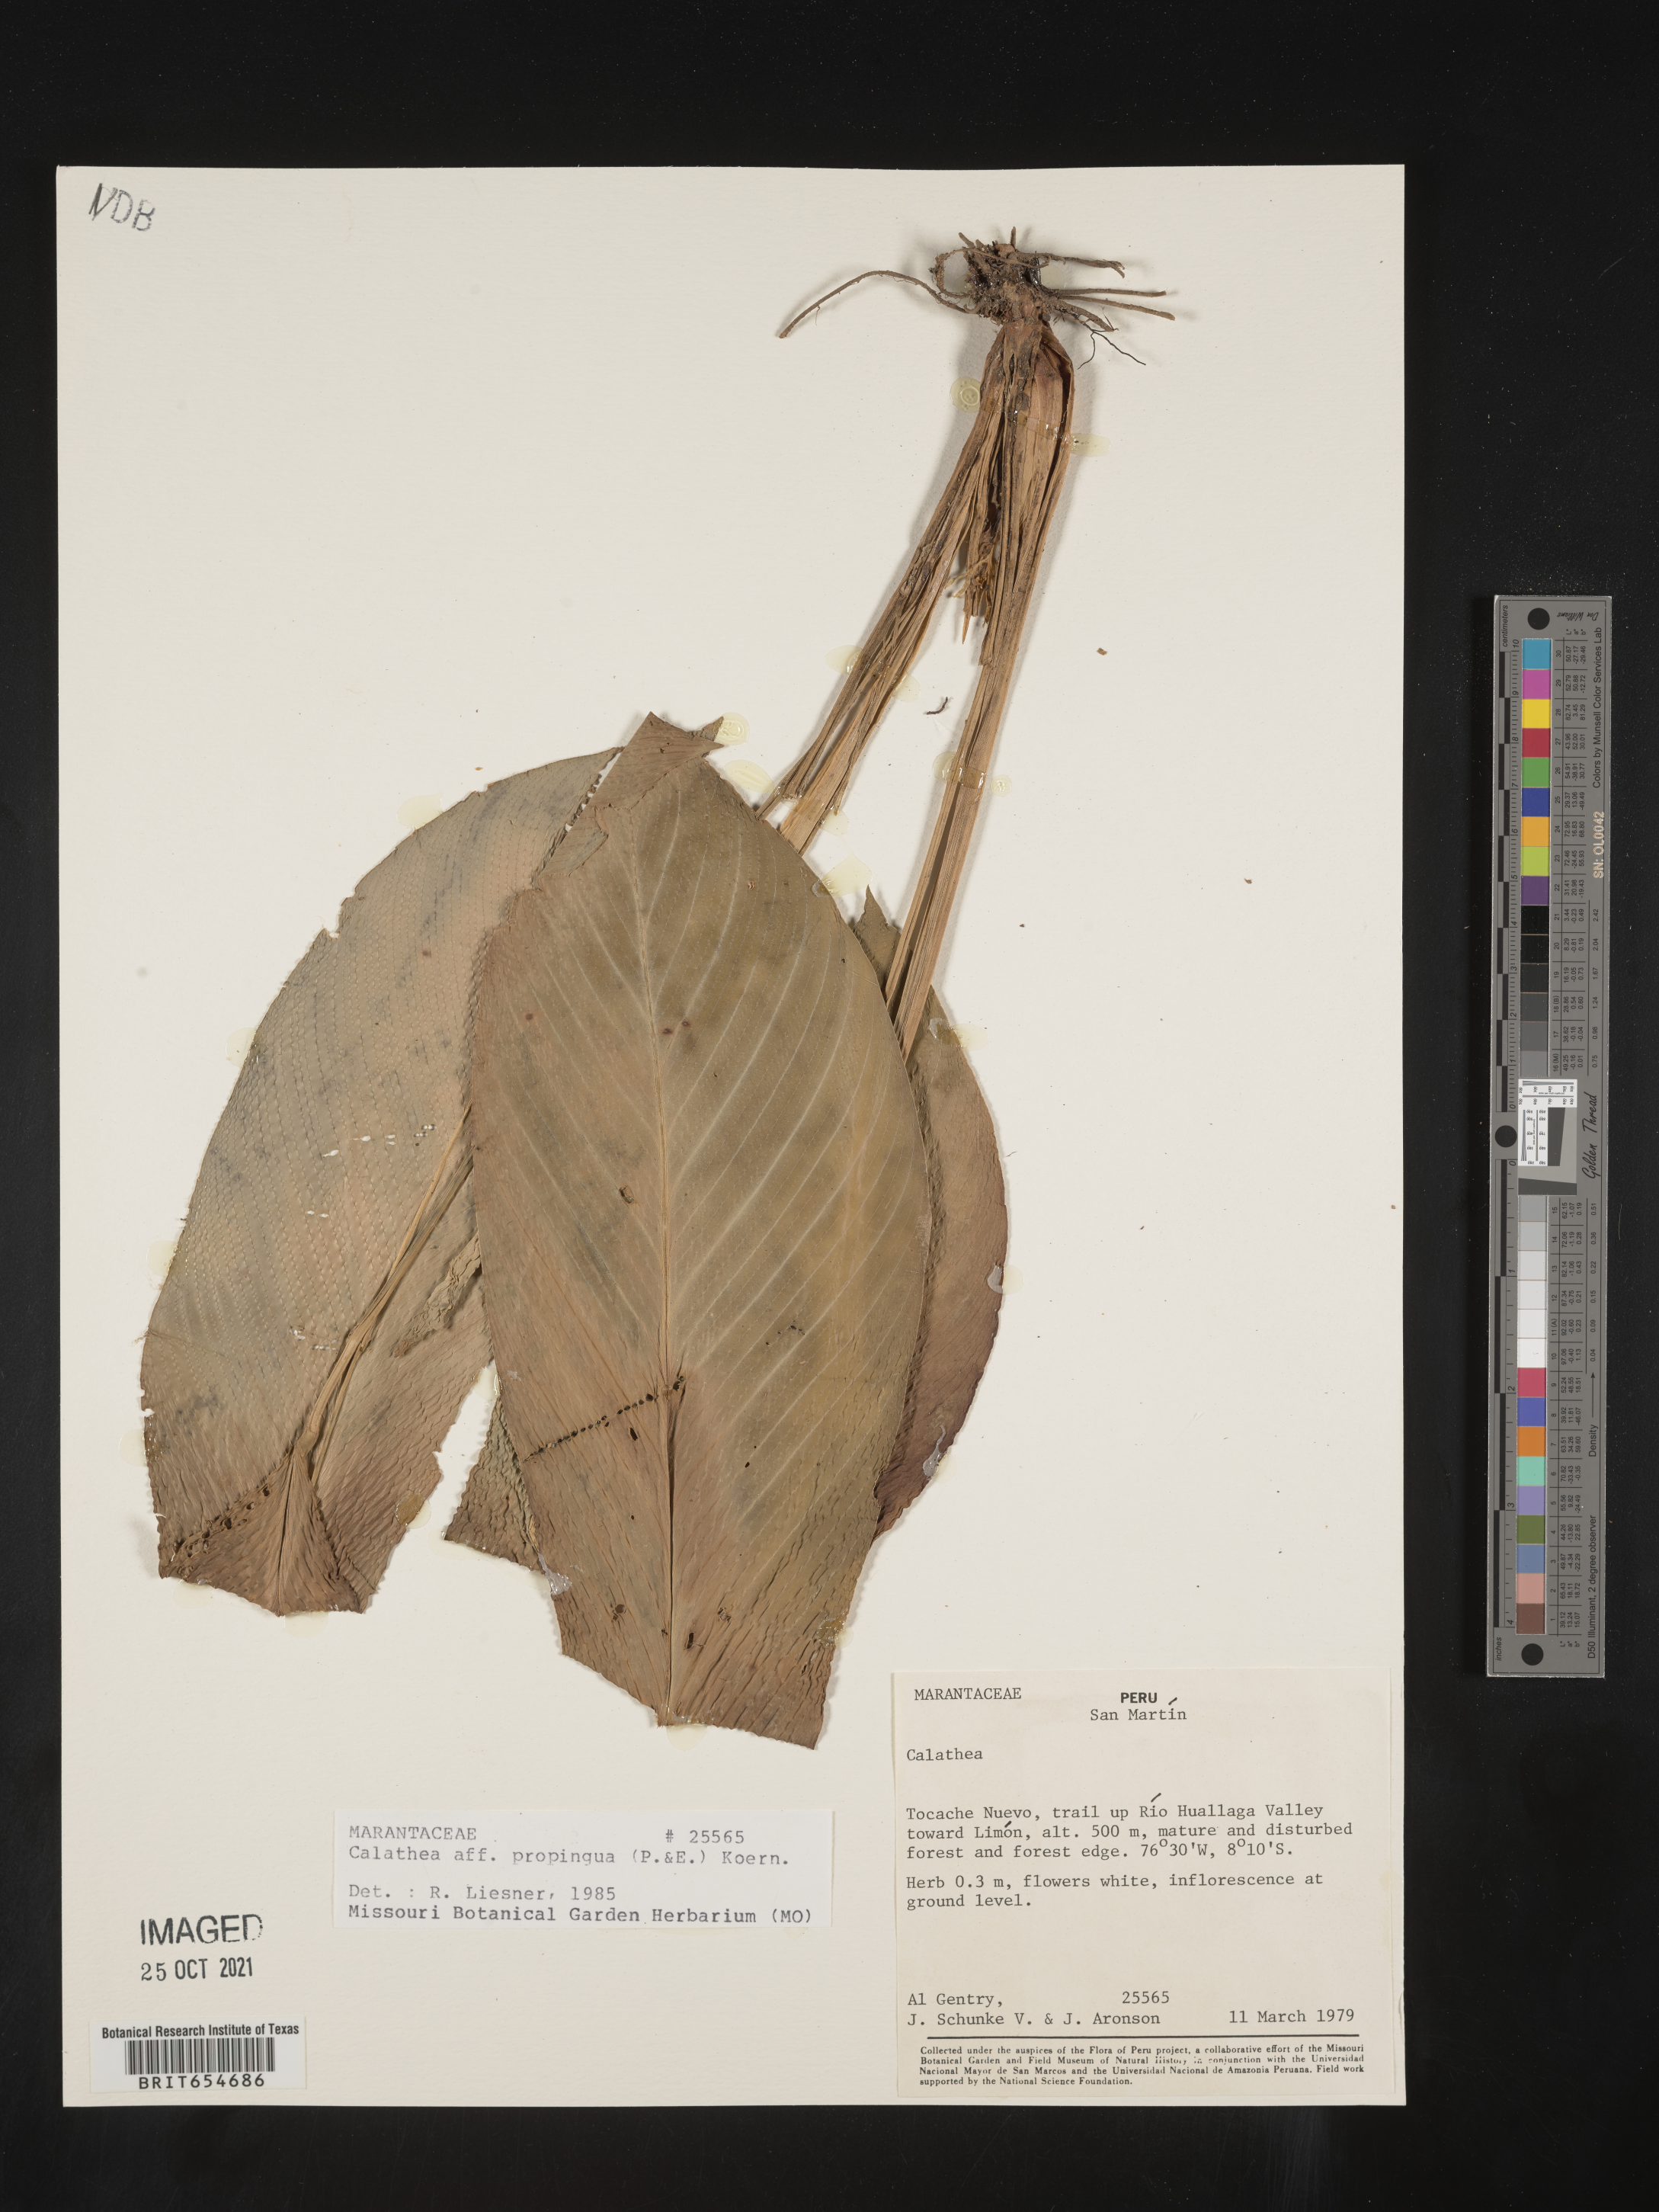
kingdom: Plantae
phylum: Tracheophyta
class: Liliopsida
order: Zingiberales
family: Marantaceae
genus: Calathea
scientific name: Calathea
